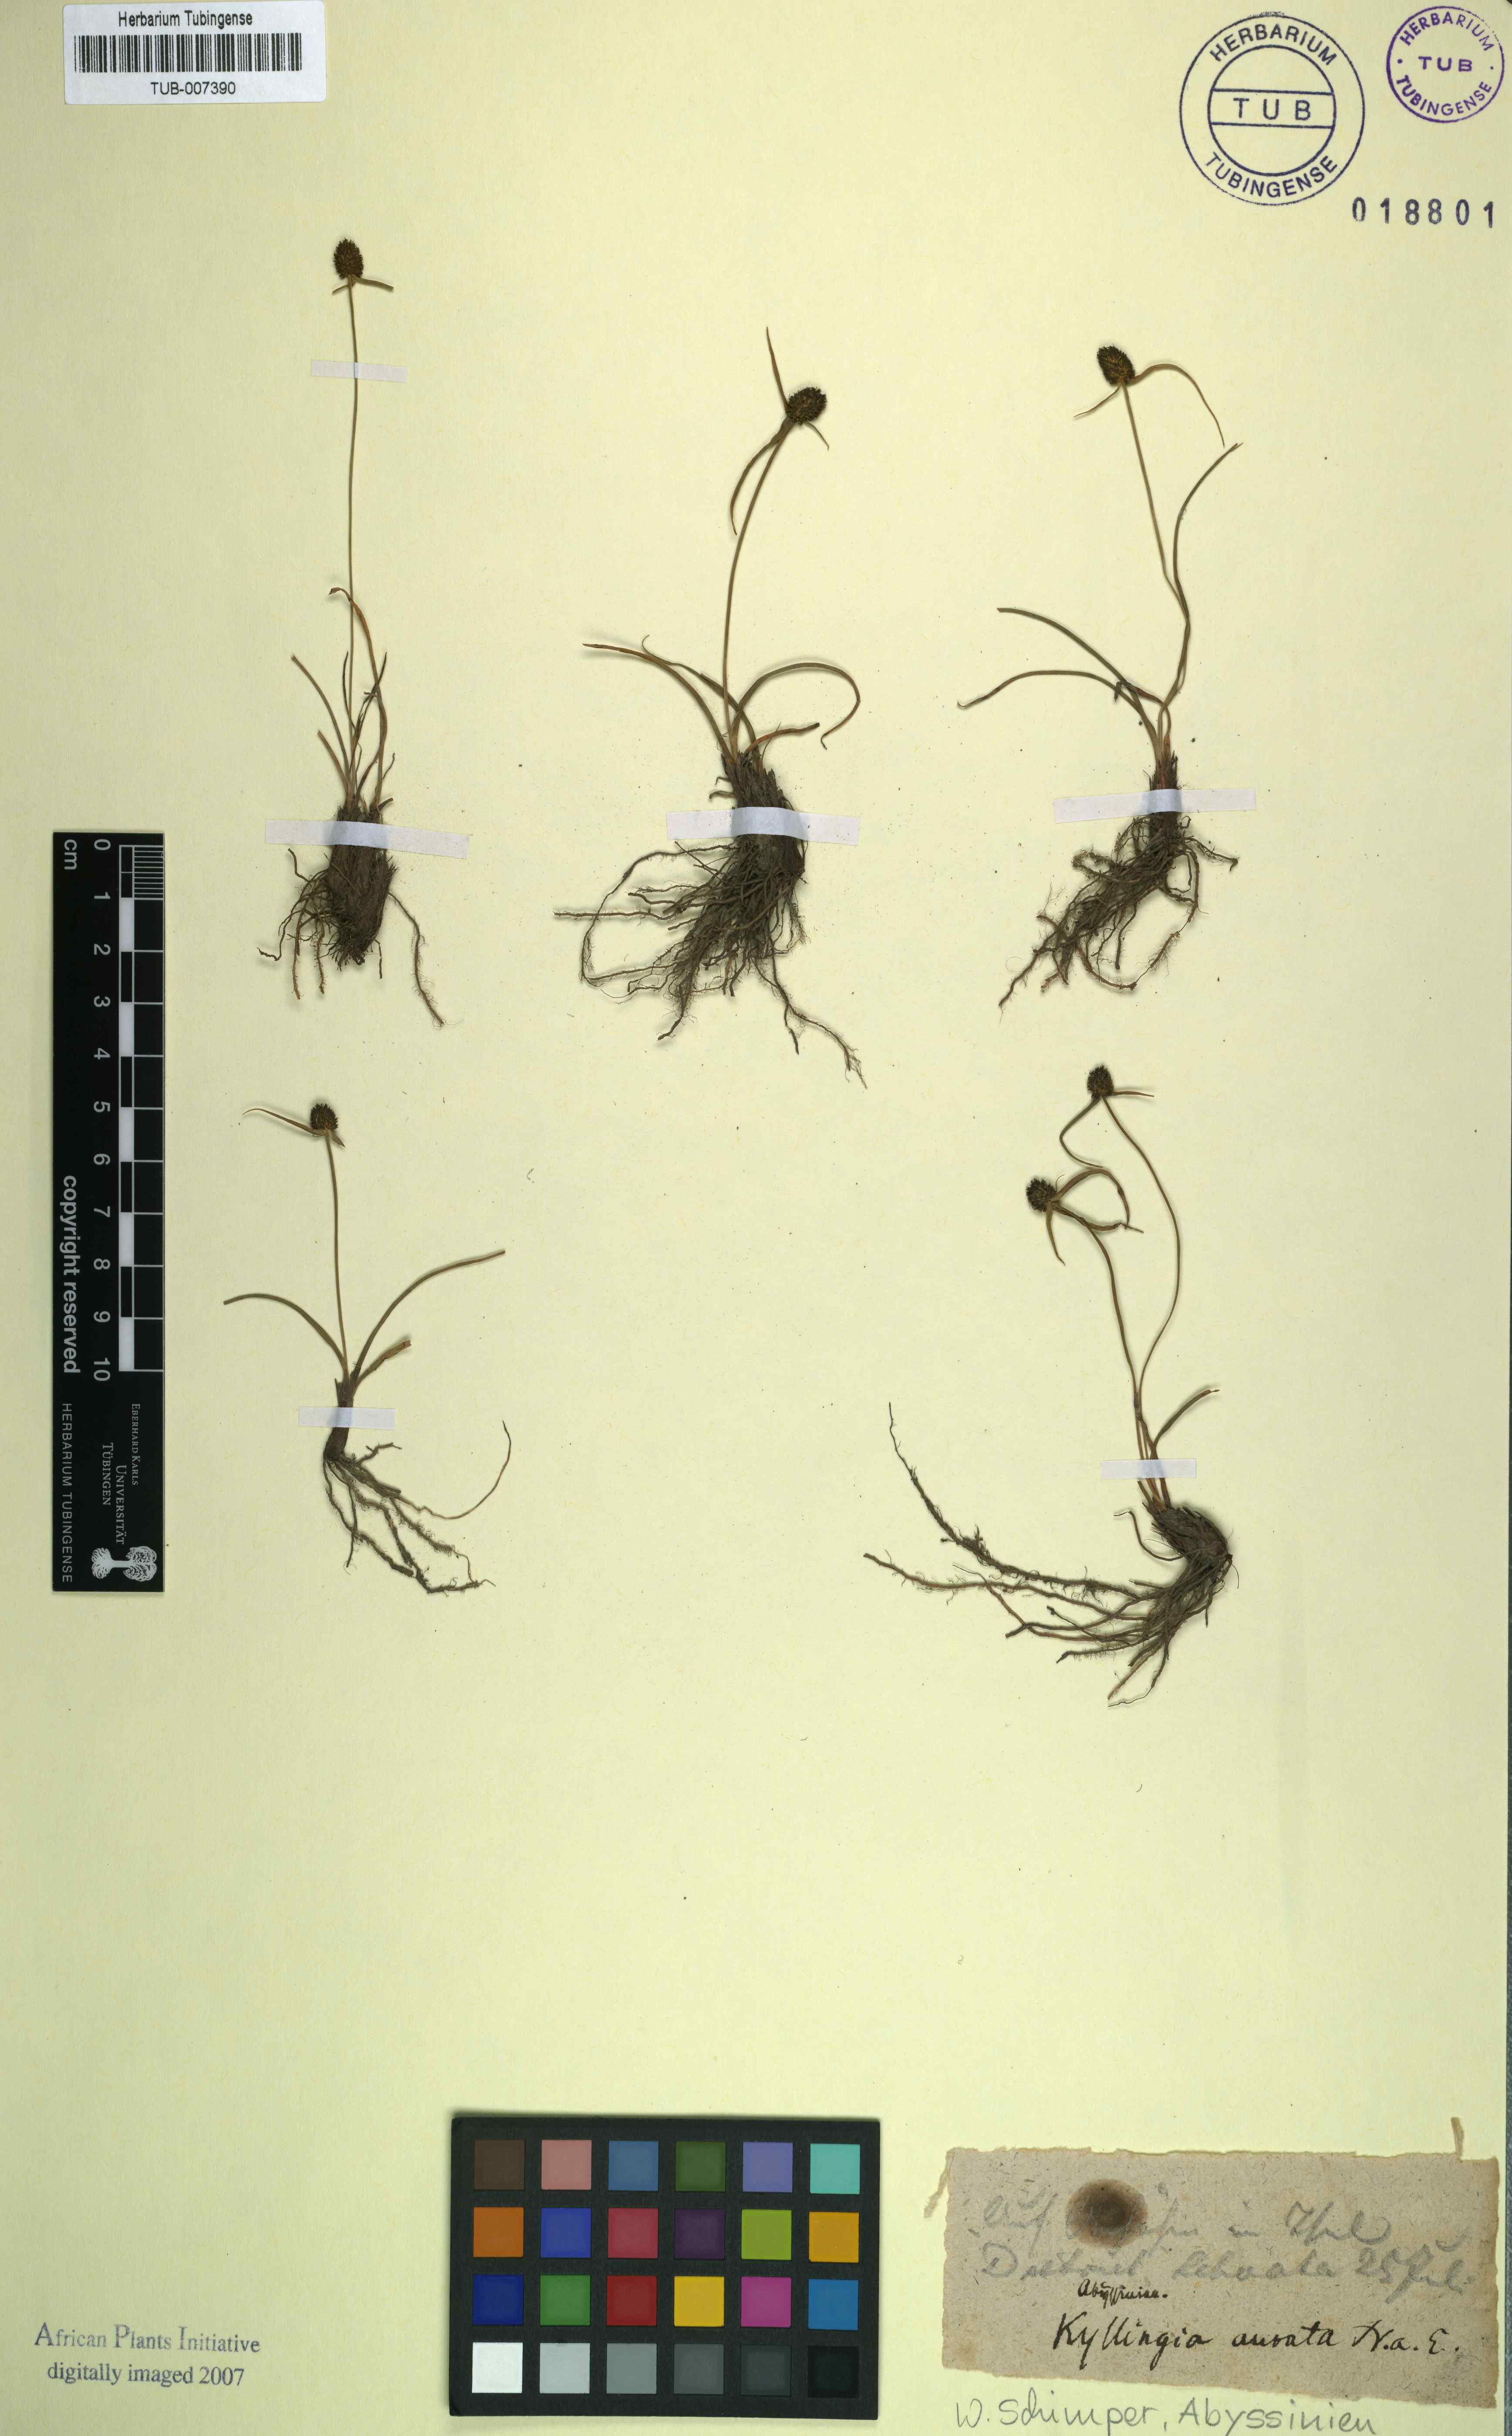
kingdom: Plantae
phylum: Tracheophyta
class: Liliopsida
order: Poales
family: Cyperaceae
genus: Cyperus
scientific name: Cyperus auratus
